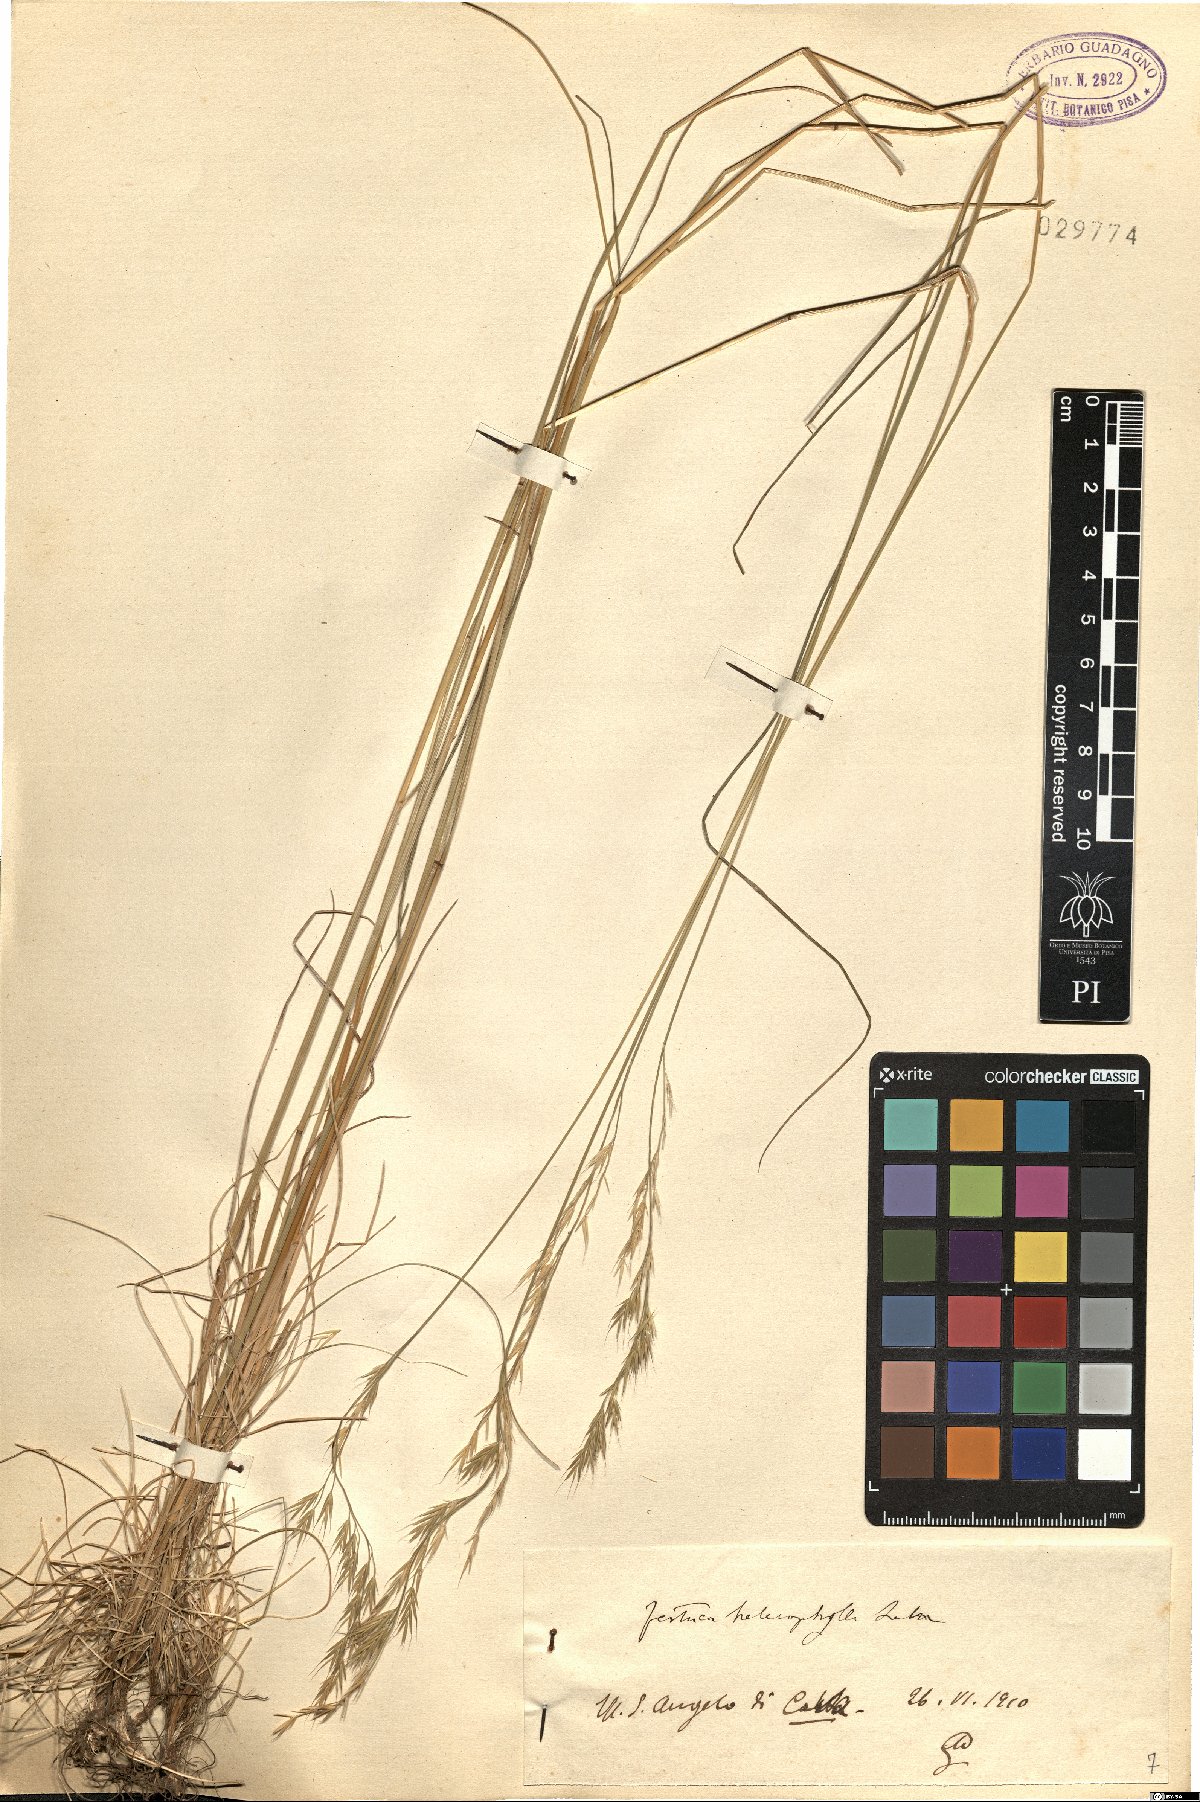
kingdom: Plantae
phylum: Tracheophyta
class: Liliopsida
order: Poales
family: Poaceae
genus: Festuca
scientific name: Festuca heterophylla
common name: Various-leaved fescue
